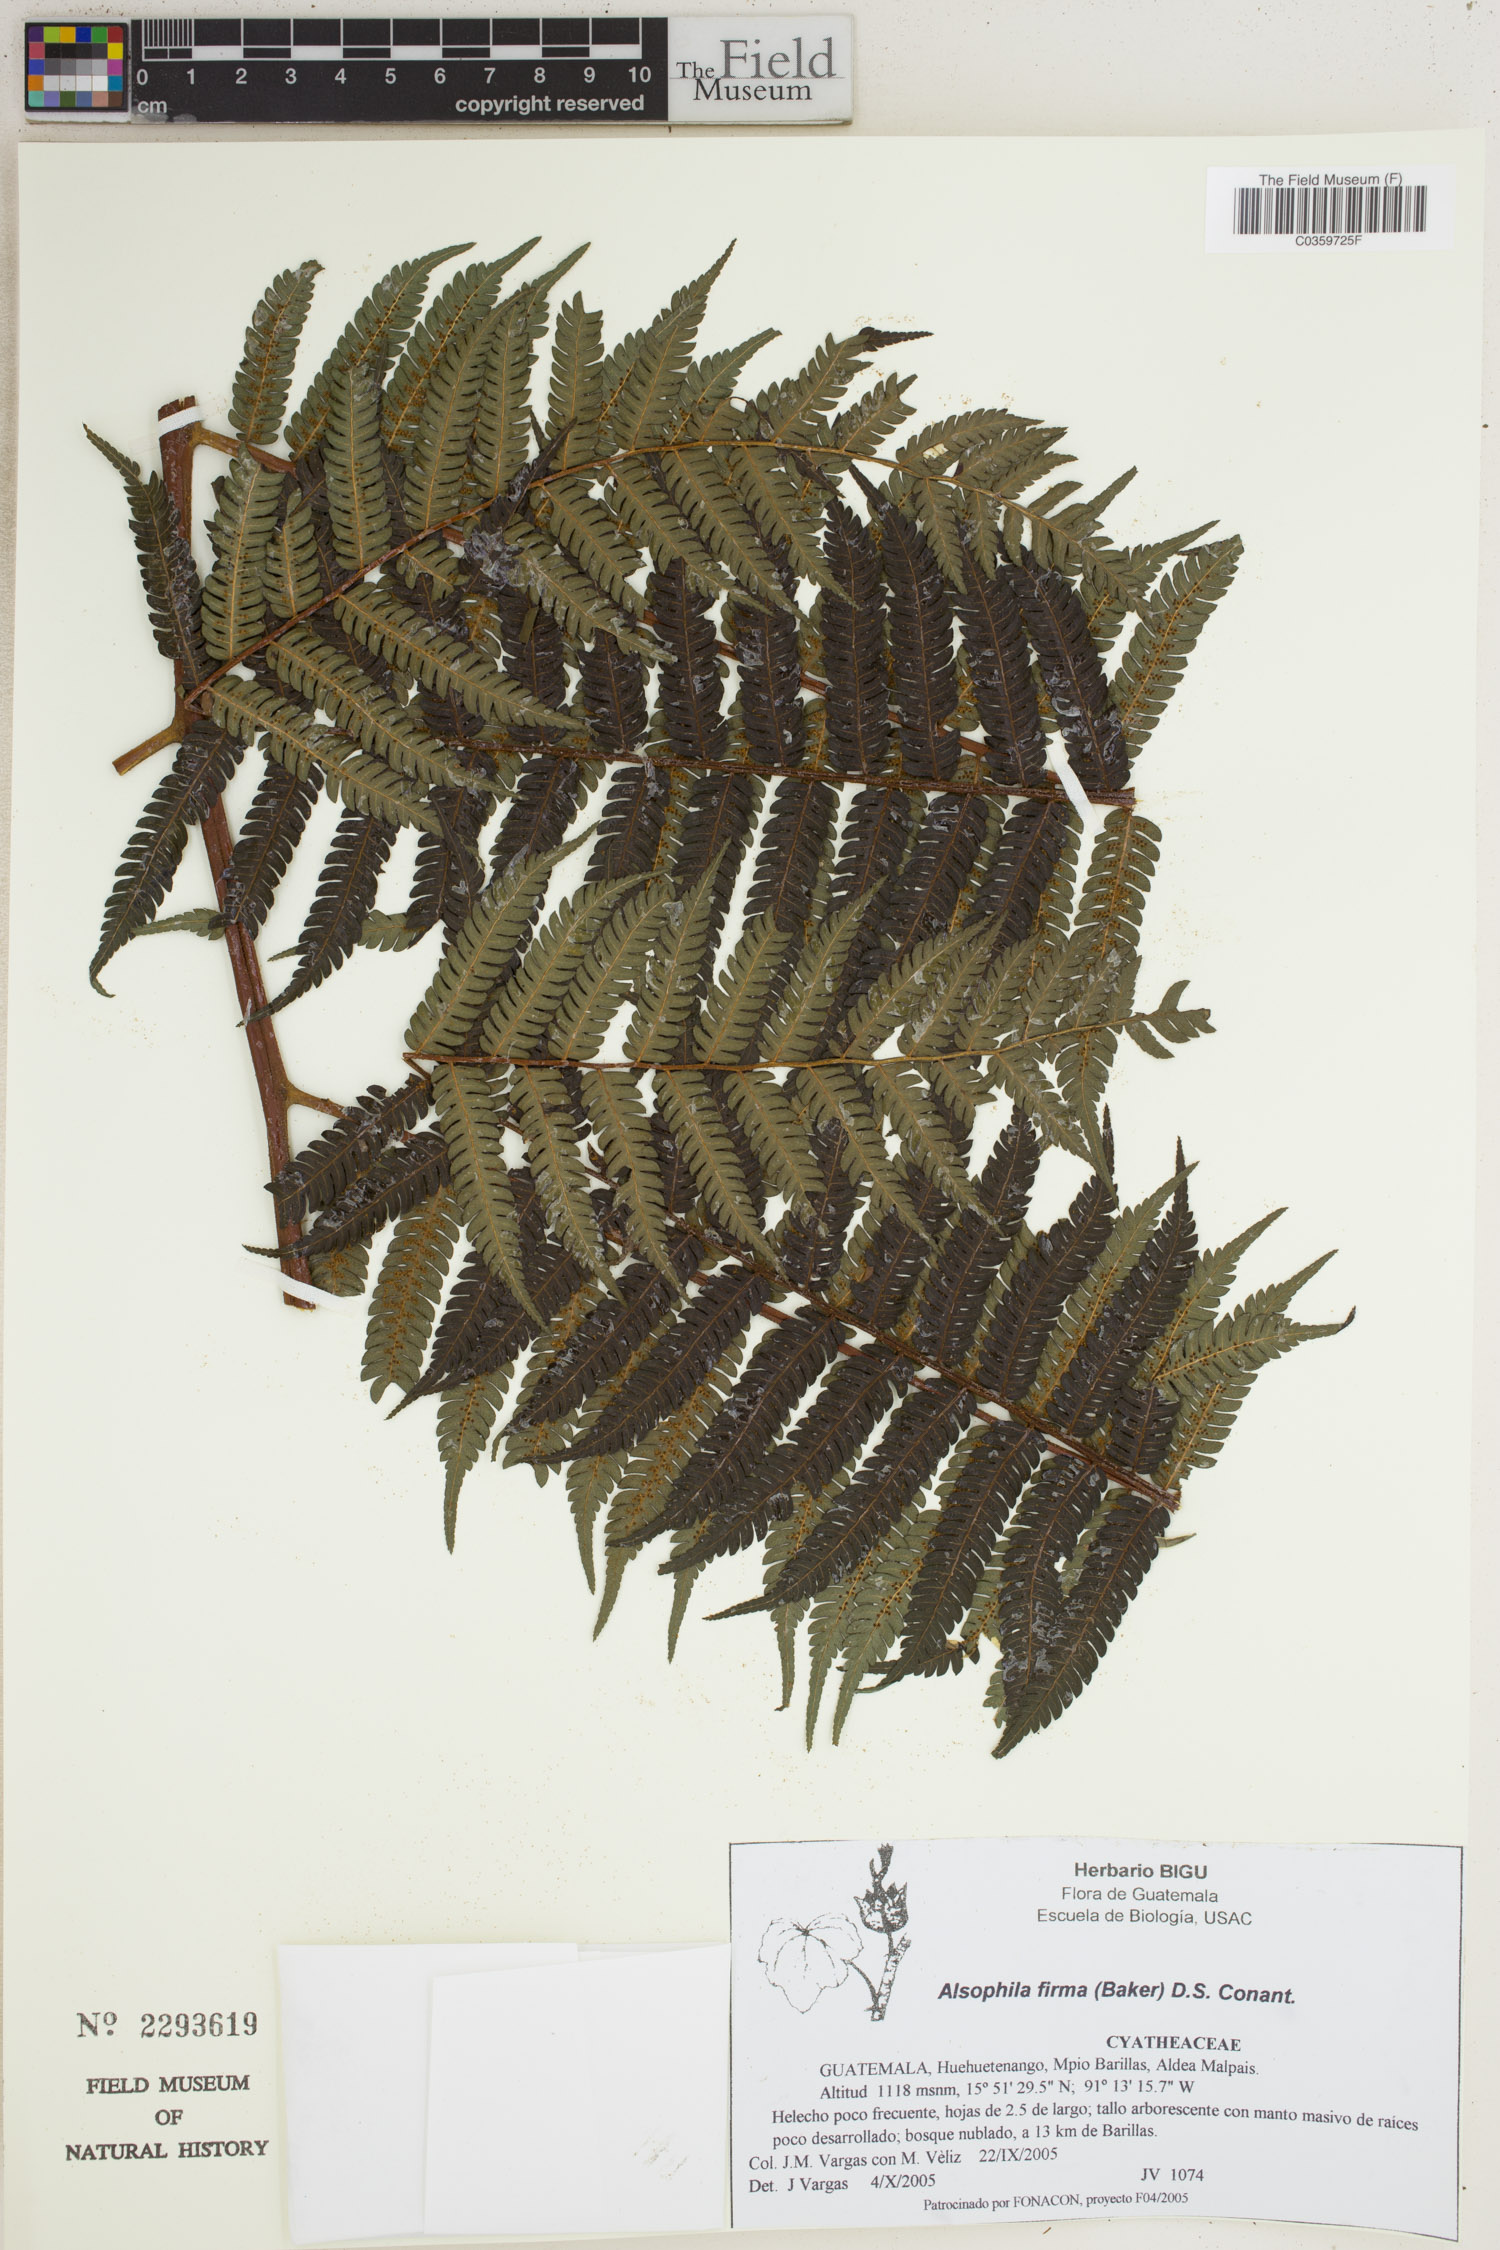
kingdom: Plantae
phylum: Tracheophyta
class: Polypodiopsida
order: Cyatheales
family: Cyatheaceae
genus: Alsophila
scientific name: Alsophila firma
